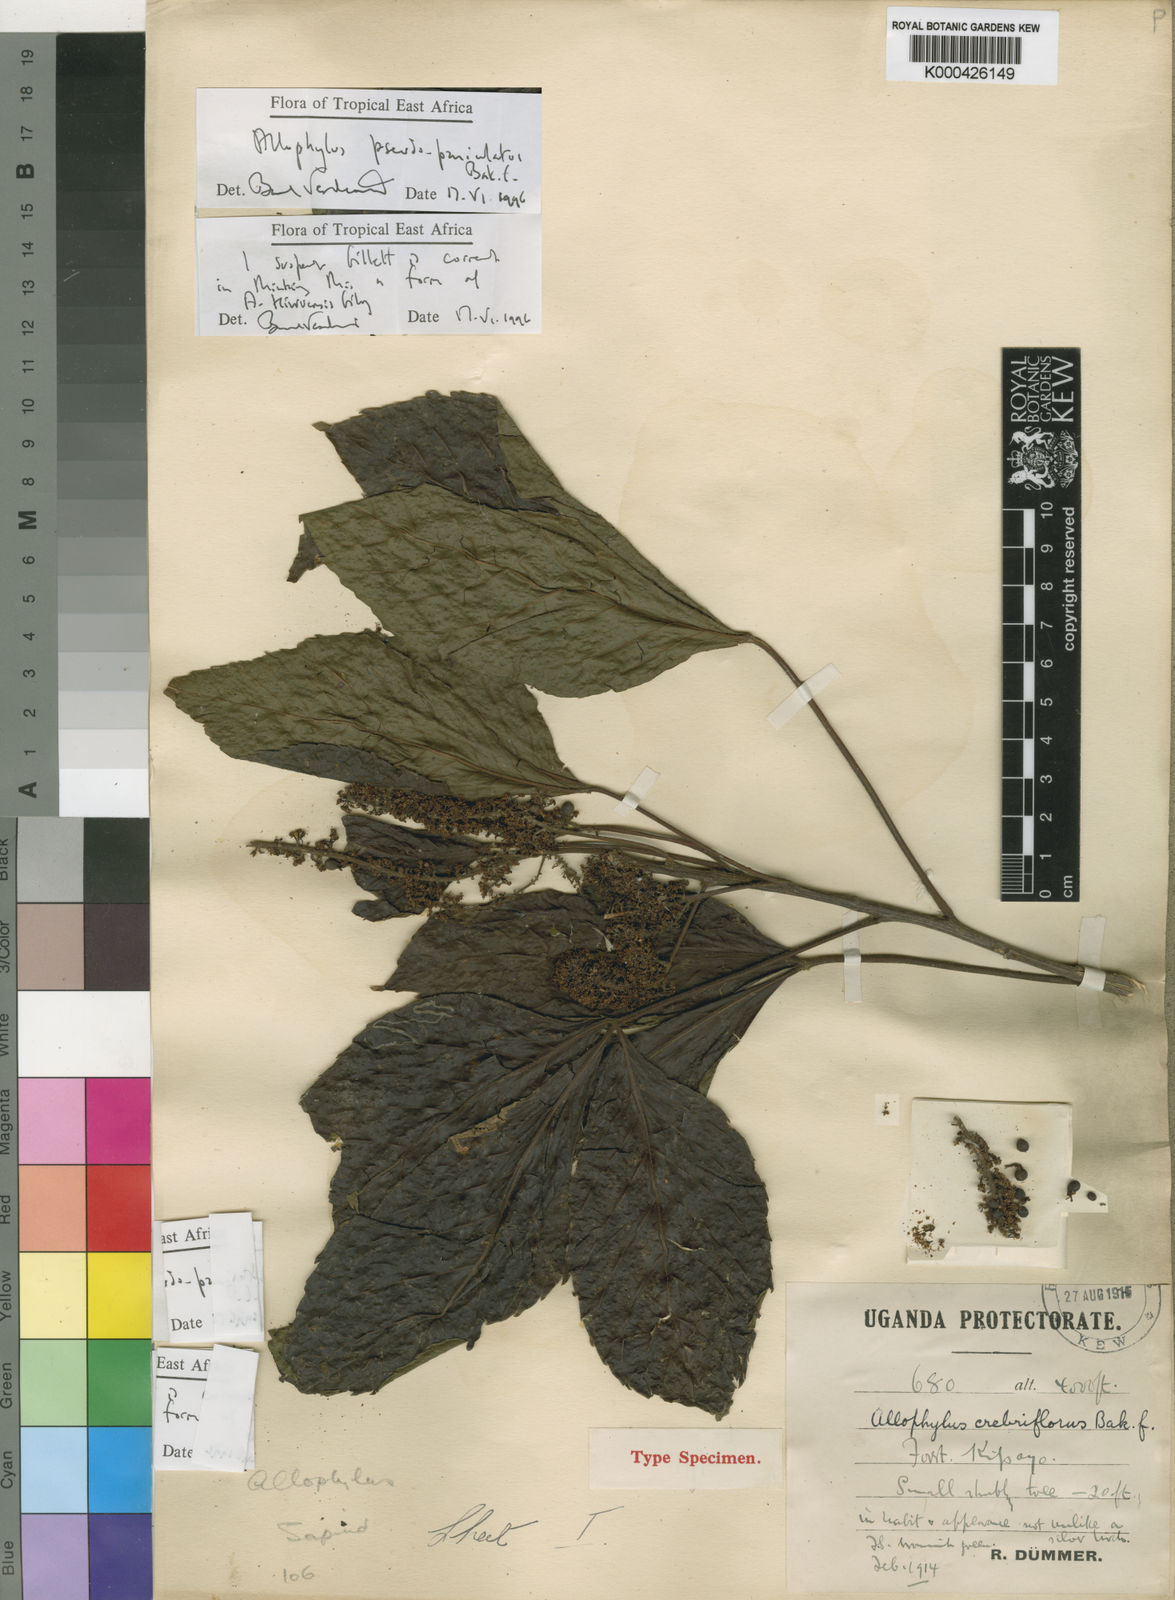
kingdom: Plantae
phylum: Tracheophyta
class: Magnoliopsida
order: Sapindales
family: Sapindaceae
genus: Allophylus
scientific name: Allophylus pseudopaniculatus
